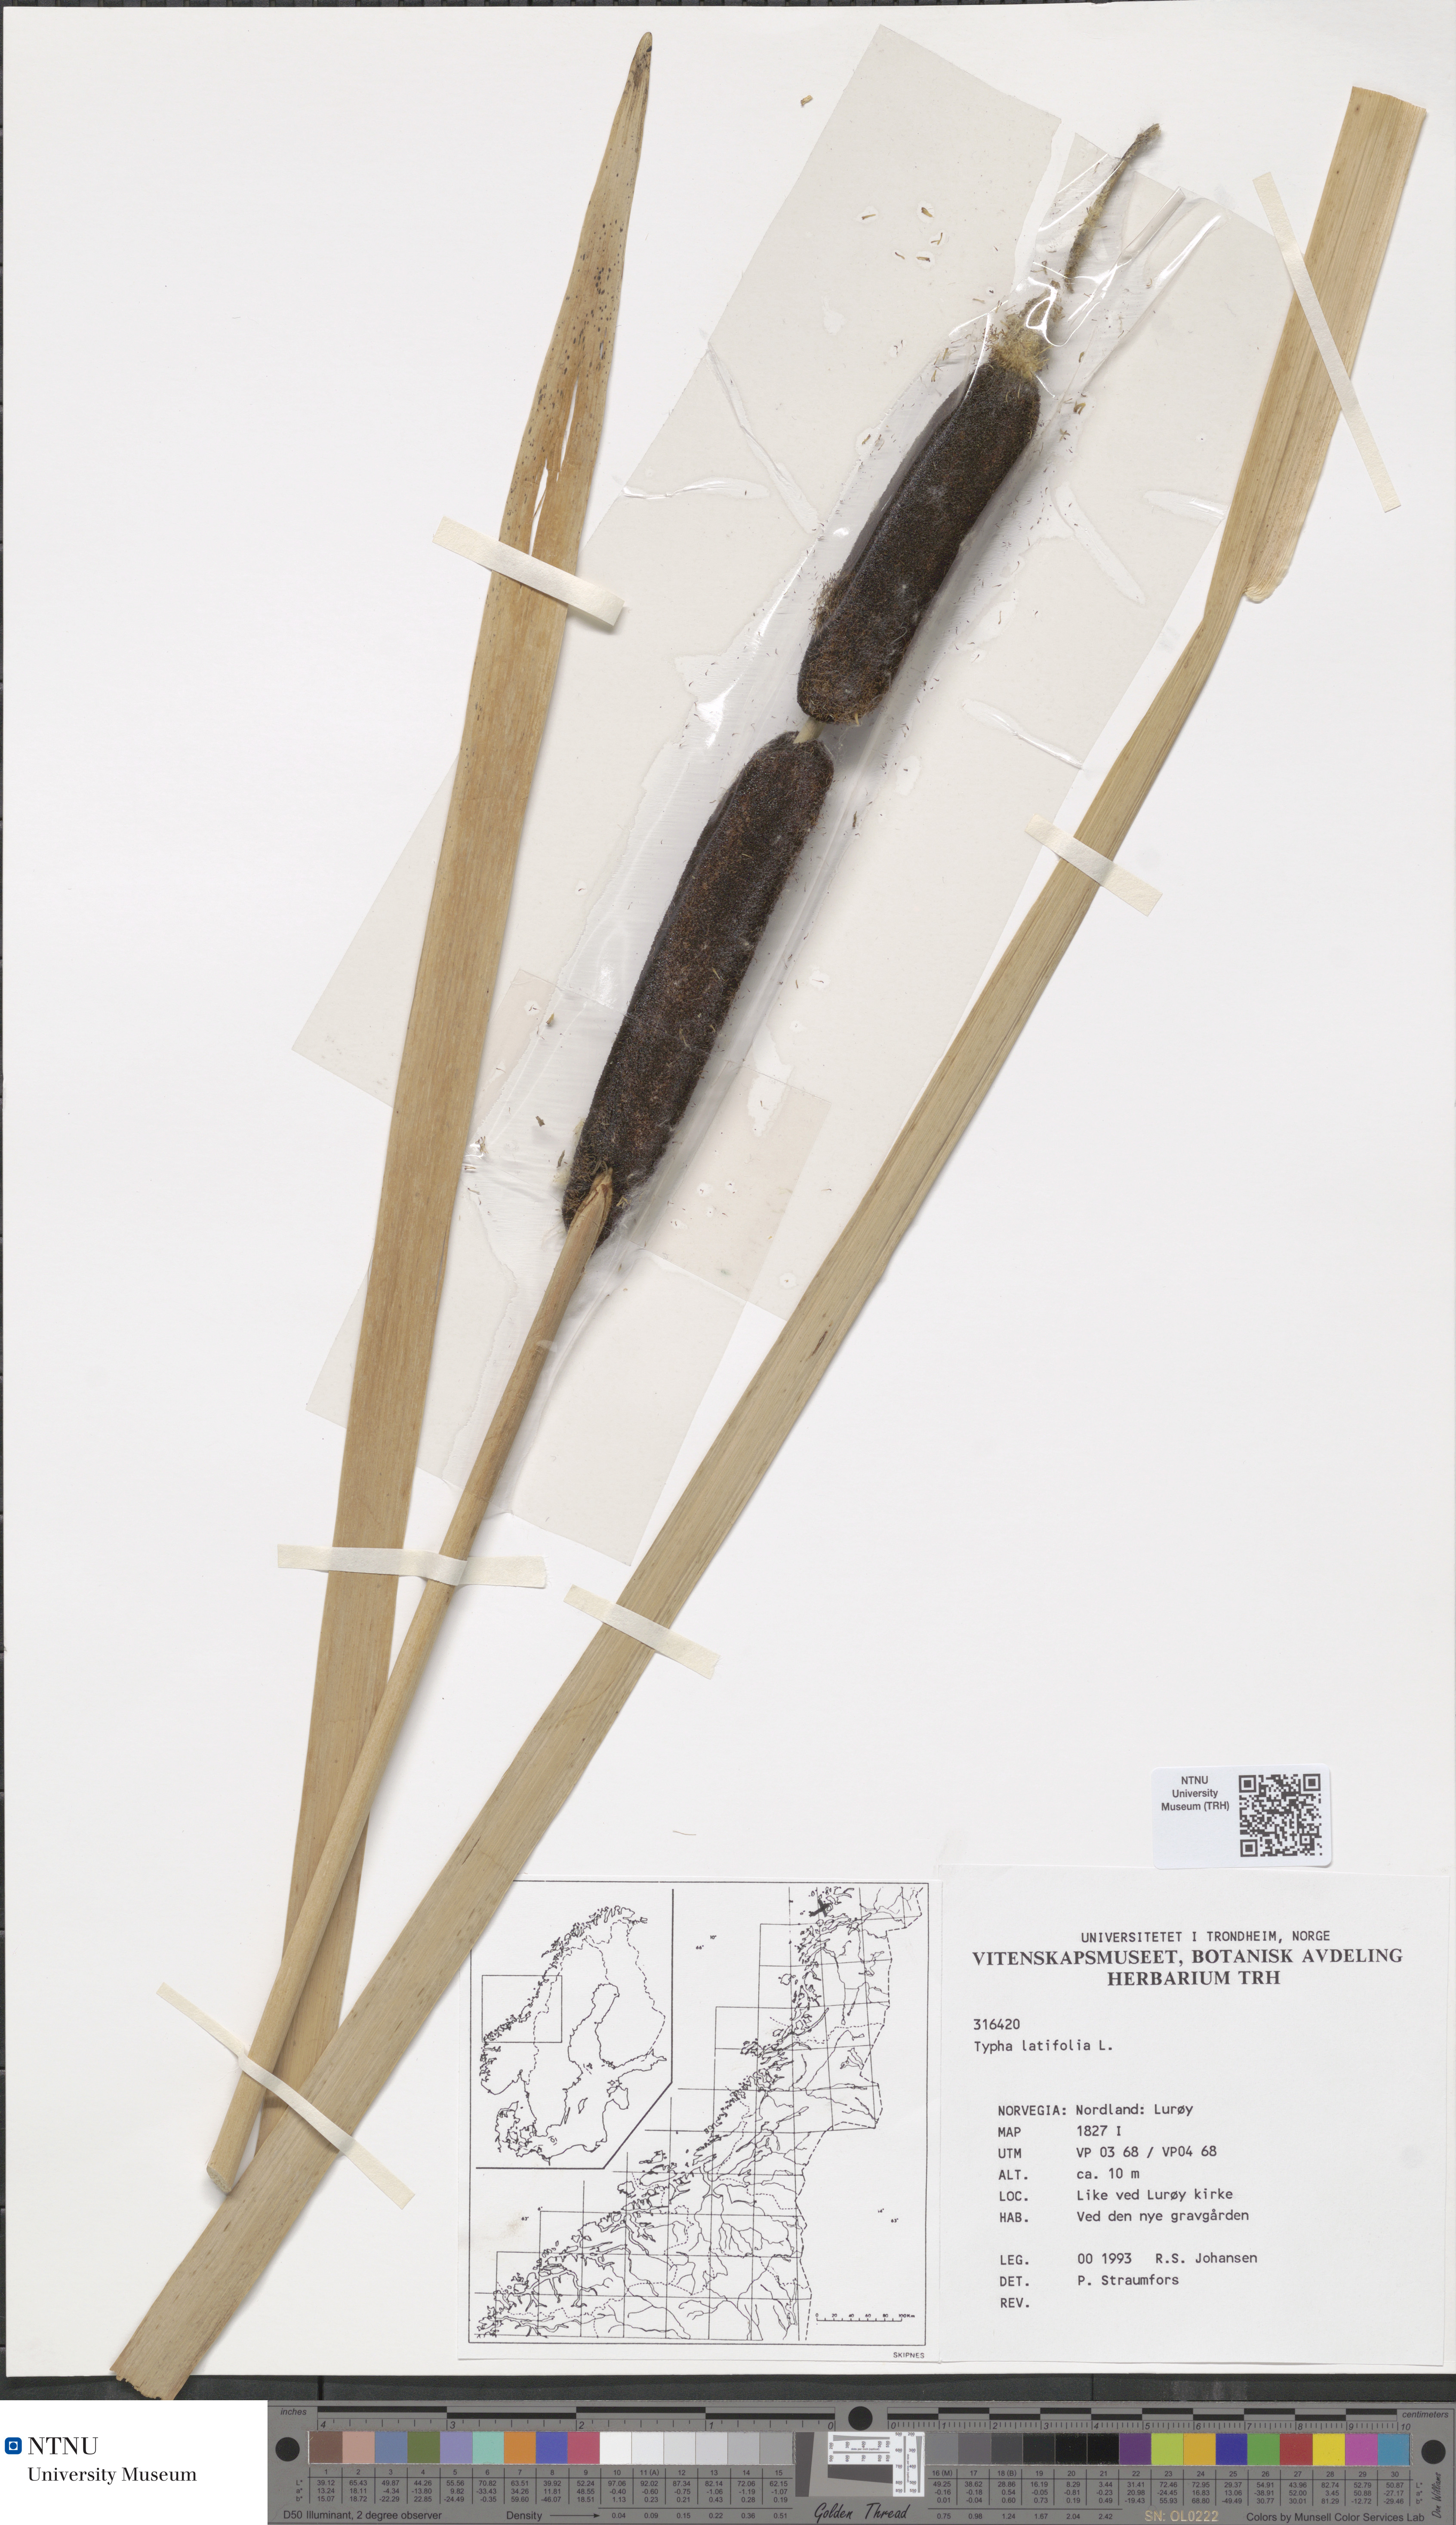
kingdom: Plantae
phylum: Tracheophyta
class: Liliopsida
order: Poales
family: Typhaceae
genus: Typha
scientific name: Typha latifolia
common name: Broadleaf cattail
